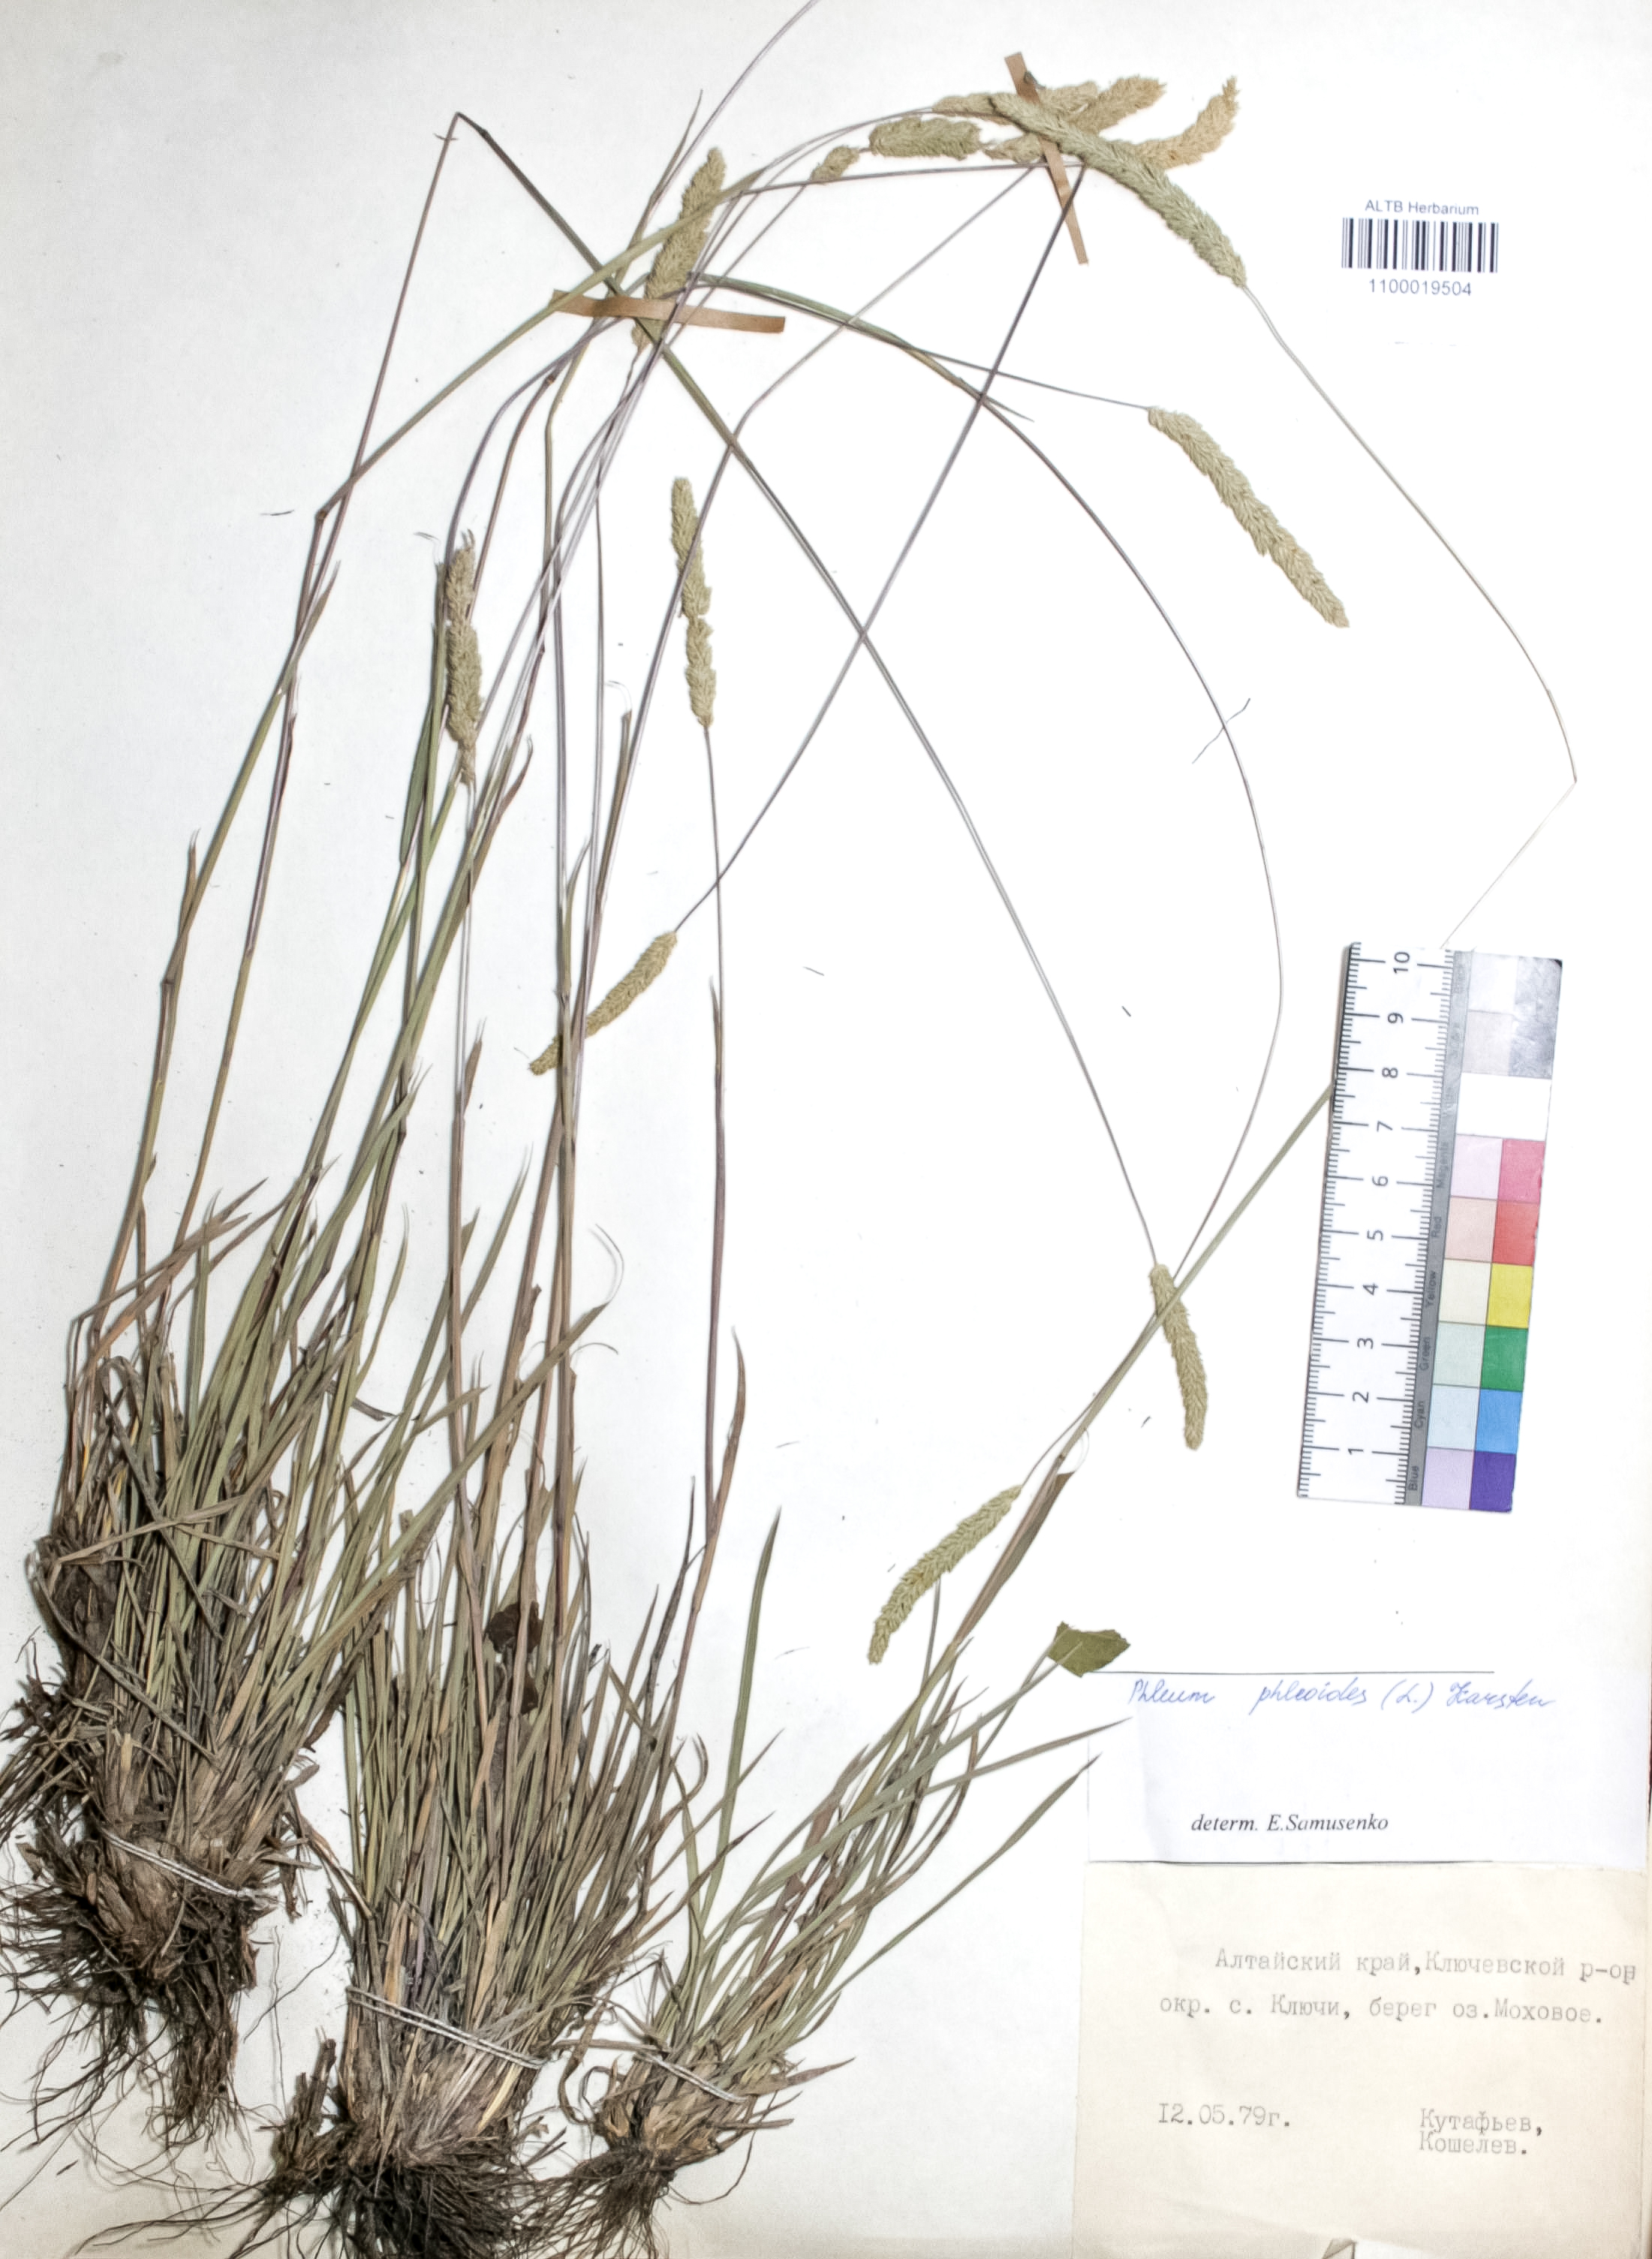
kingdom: Plantae
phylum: Tracheophyta
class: Liliopsida
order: Poales
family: Poaceae
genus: Phleum
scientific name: Phleum phleoides
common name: Purple-stem cat's-tail
